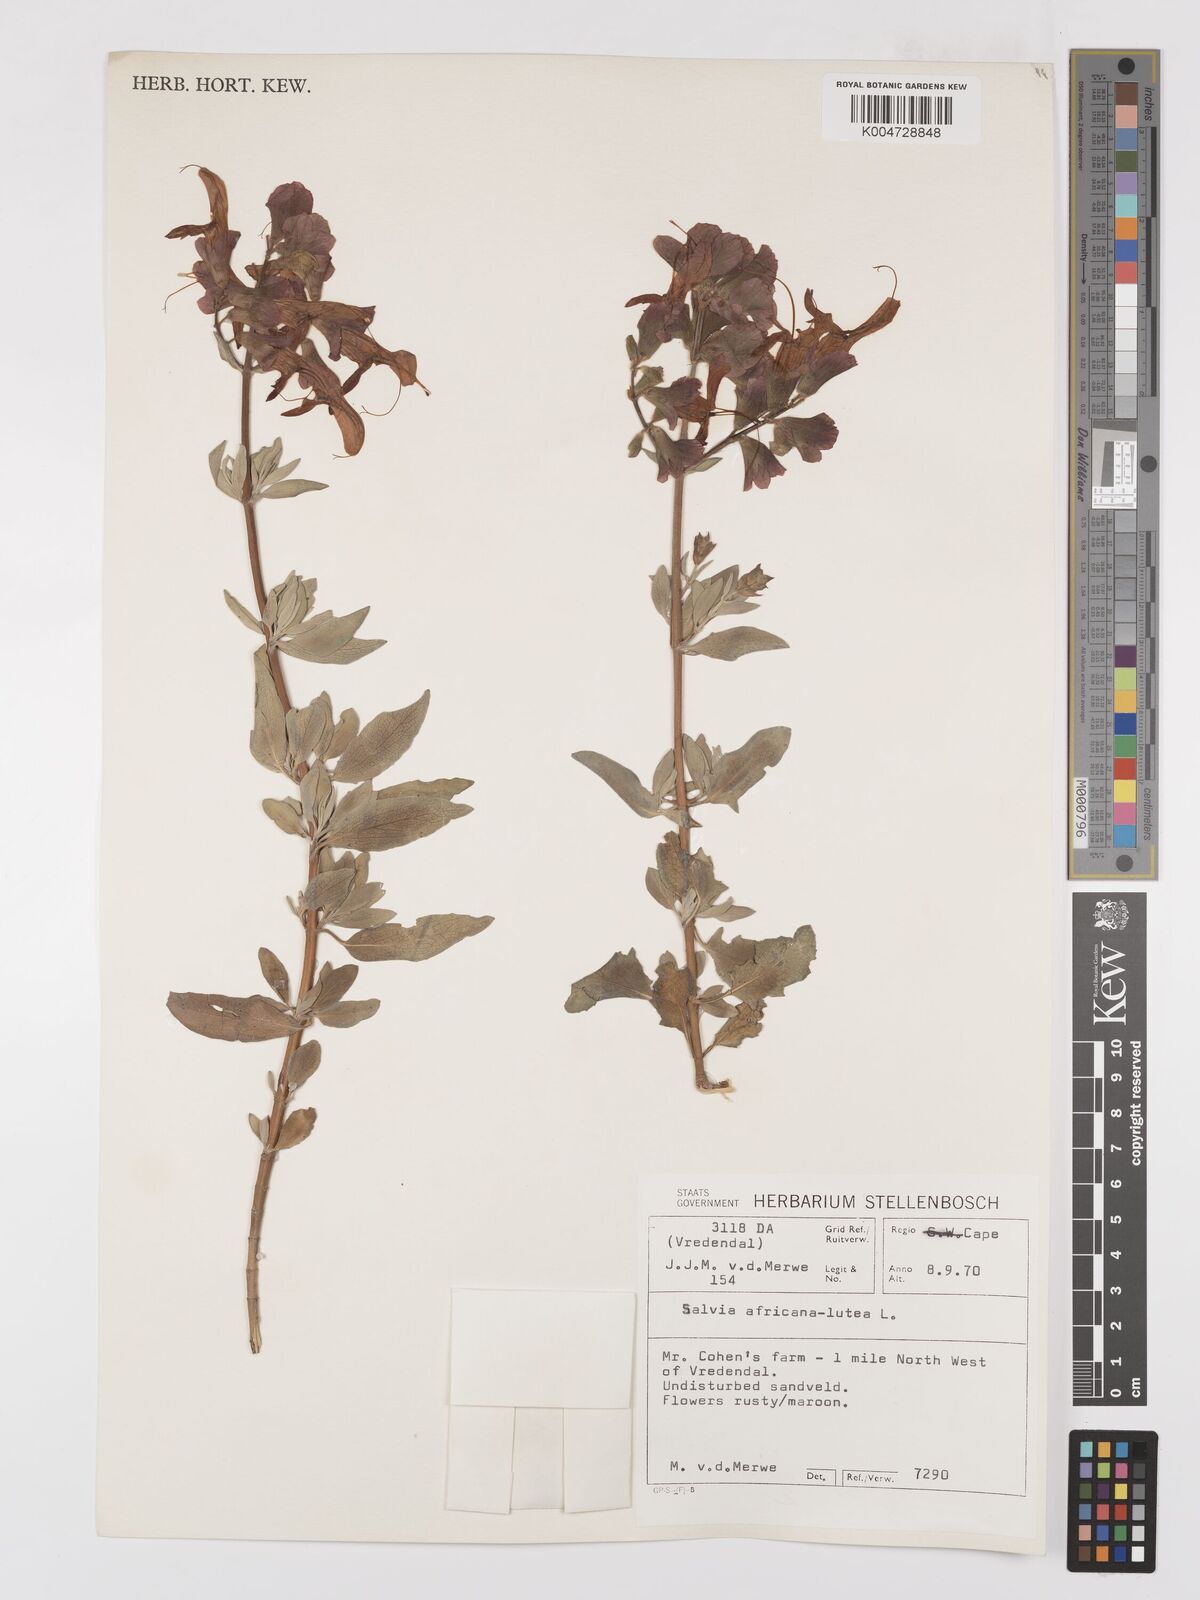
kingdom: Plantae
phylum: Tracheophyta
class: Magnoliopsida
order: Lamiales
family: Lamiaceae
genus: Salvia
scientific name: Salvia aurea
